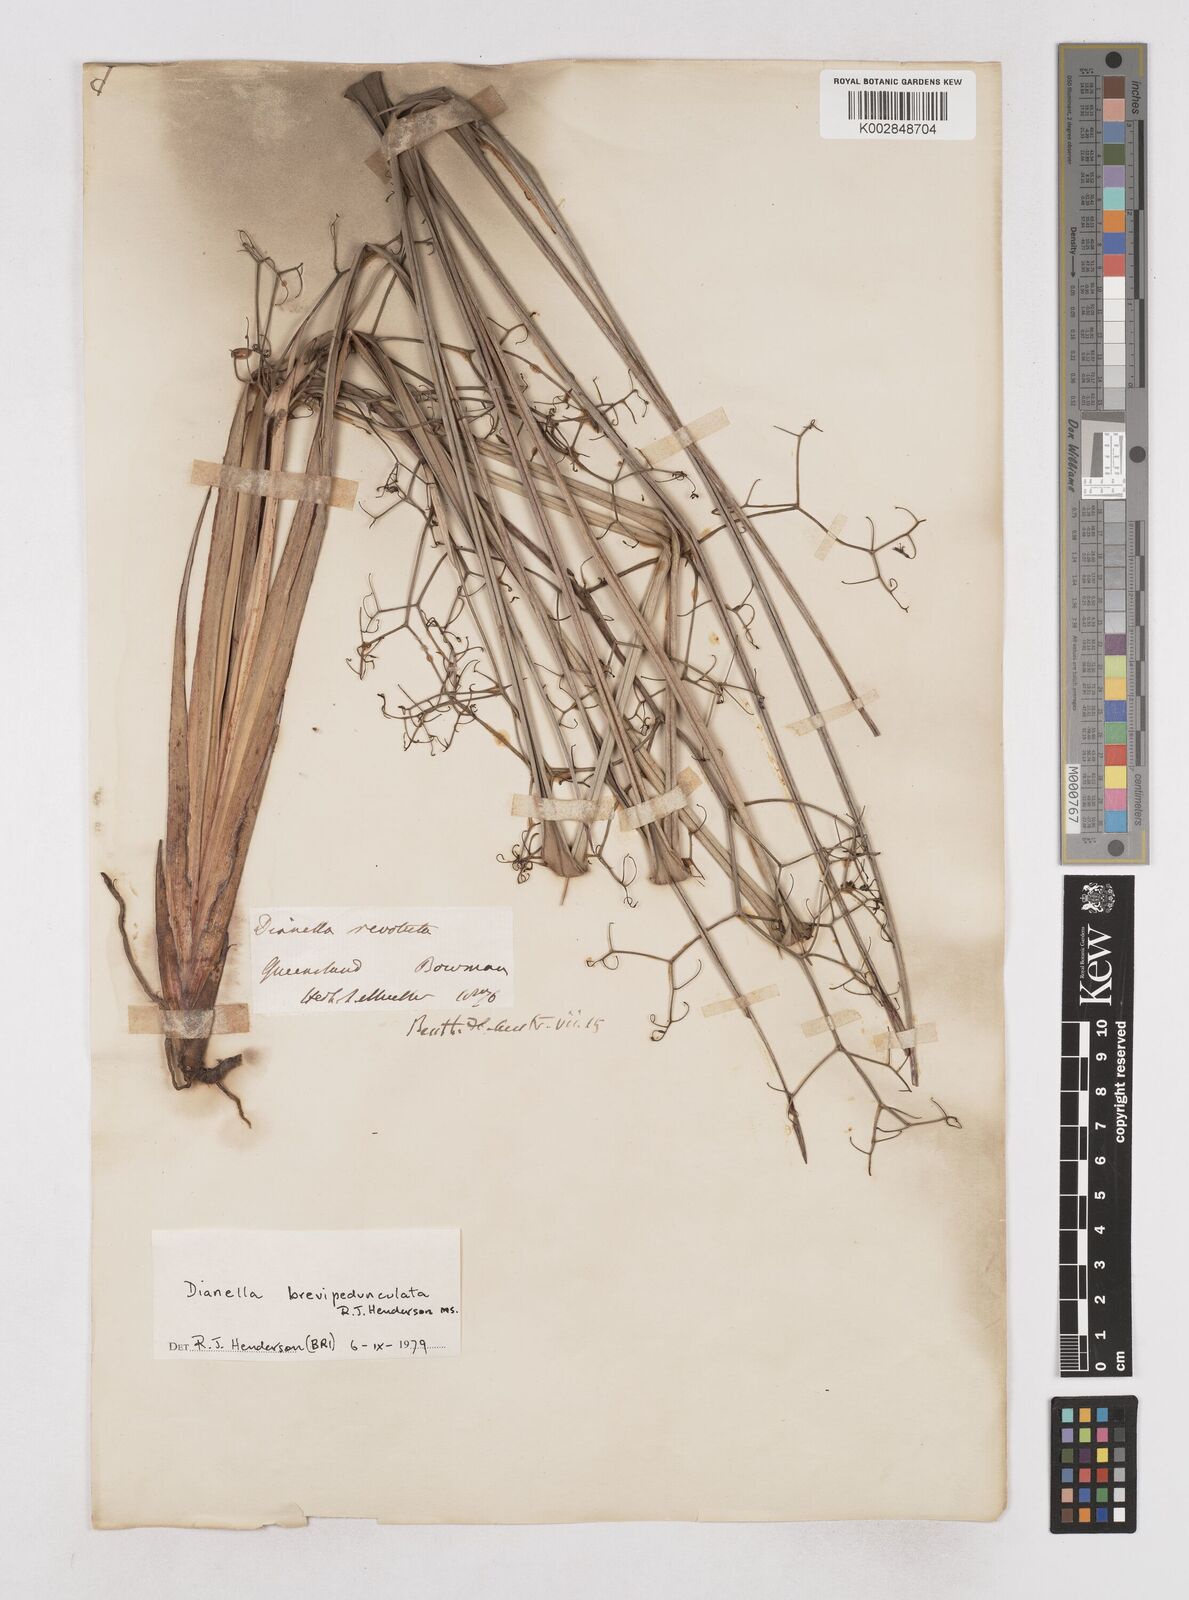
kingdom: Plantae
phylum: Tracheophyta
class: Liliopsida
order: Asparagales
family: Asphodelaceae
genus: Dianella
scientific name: Dianella brevipedunculata
